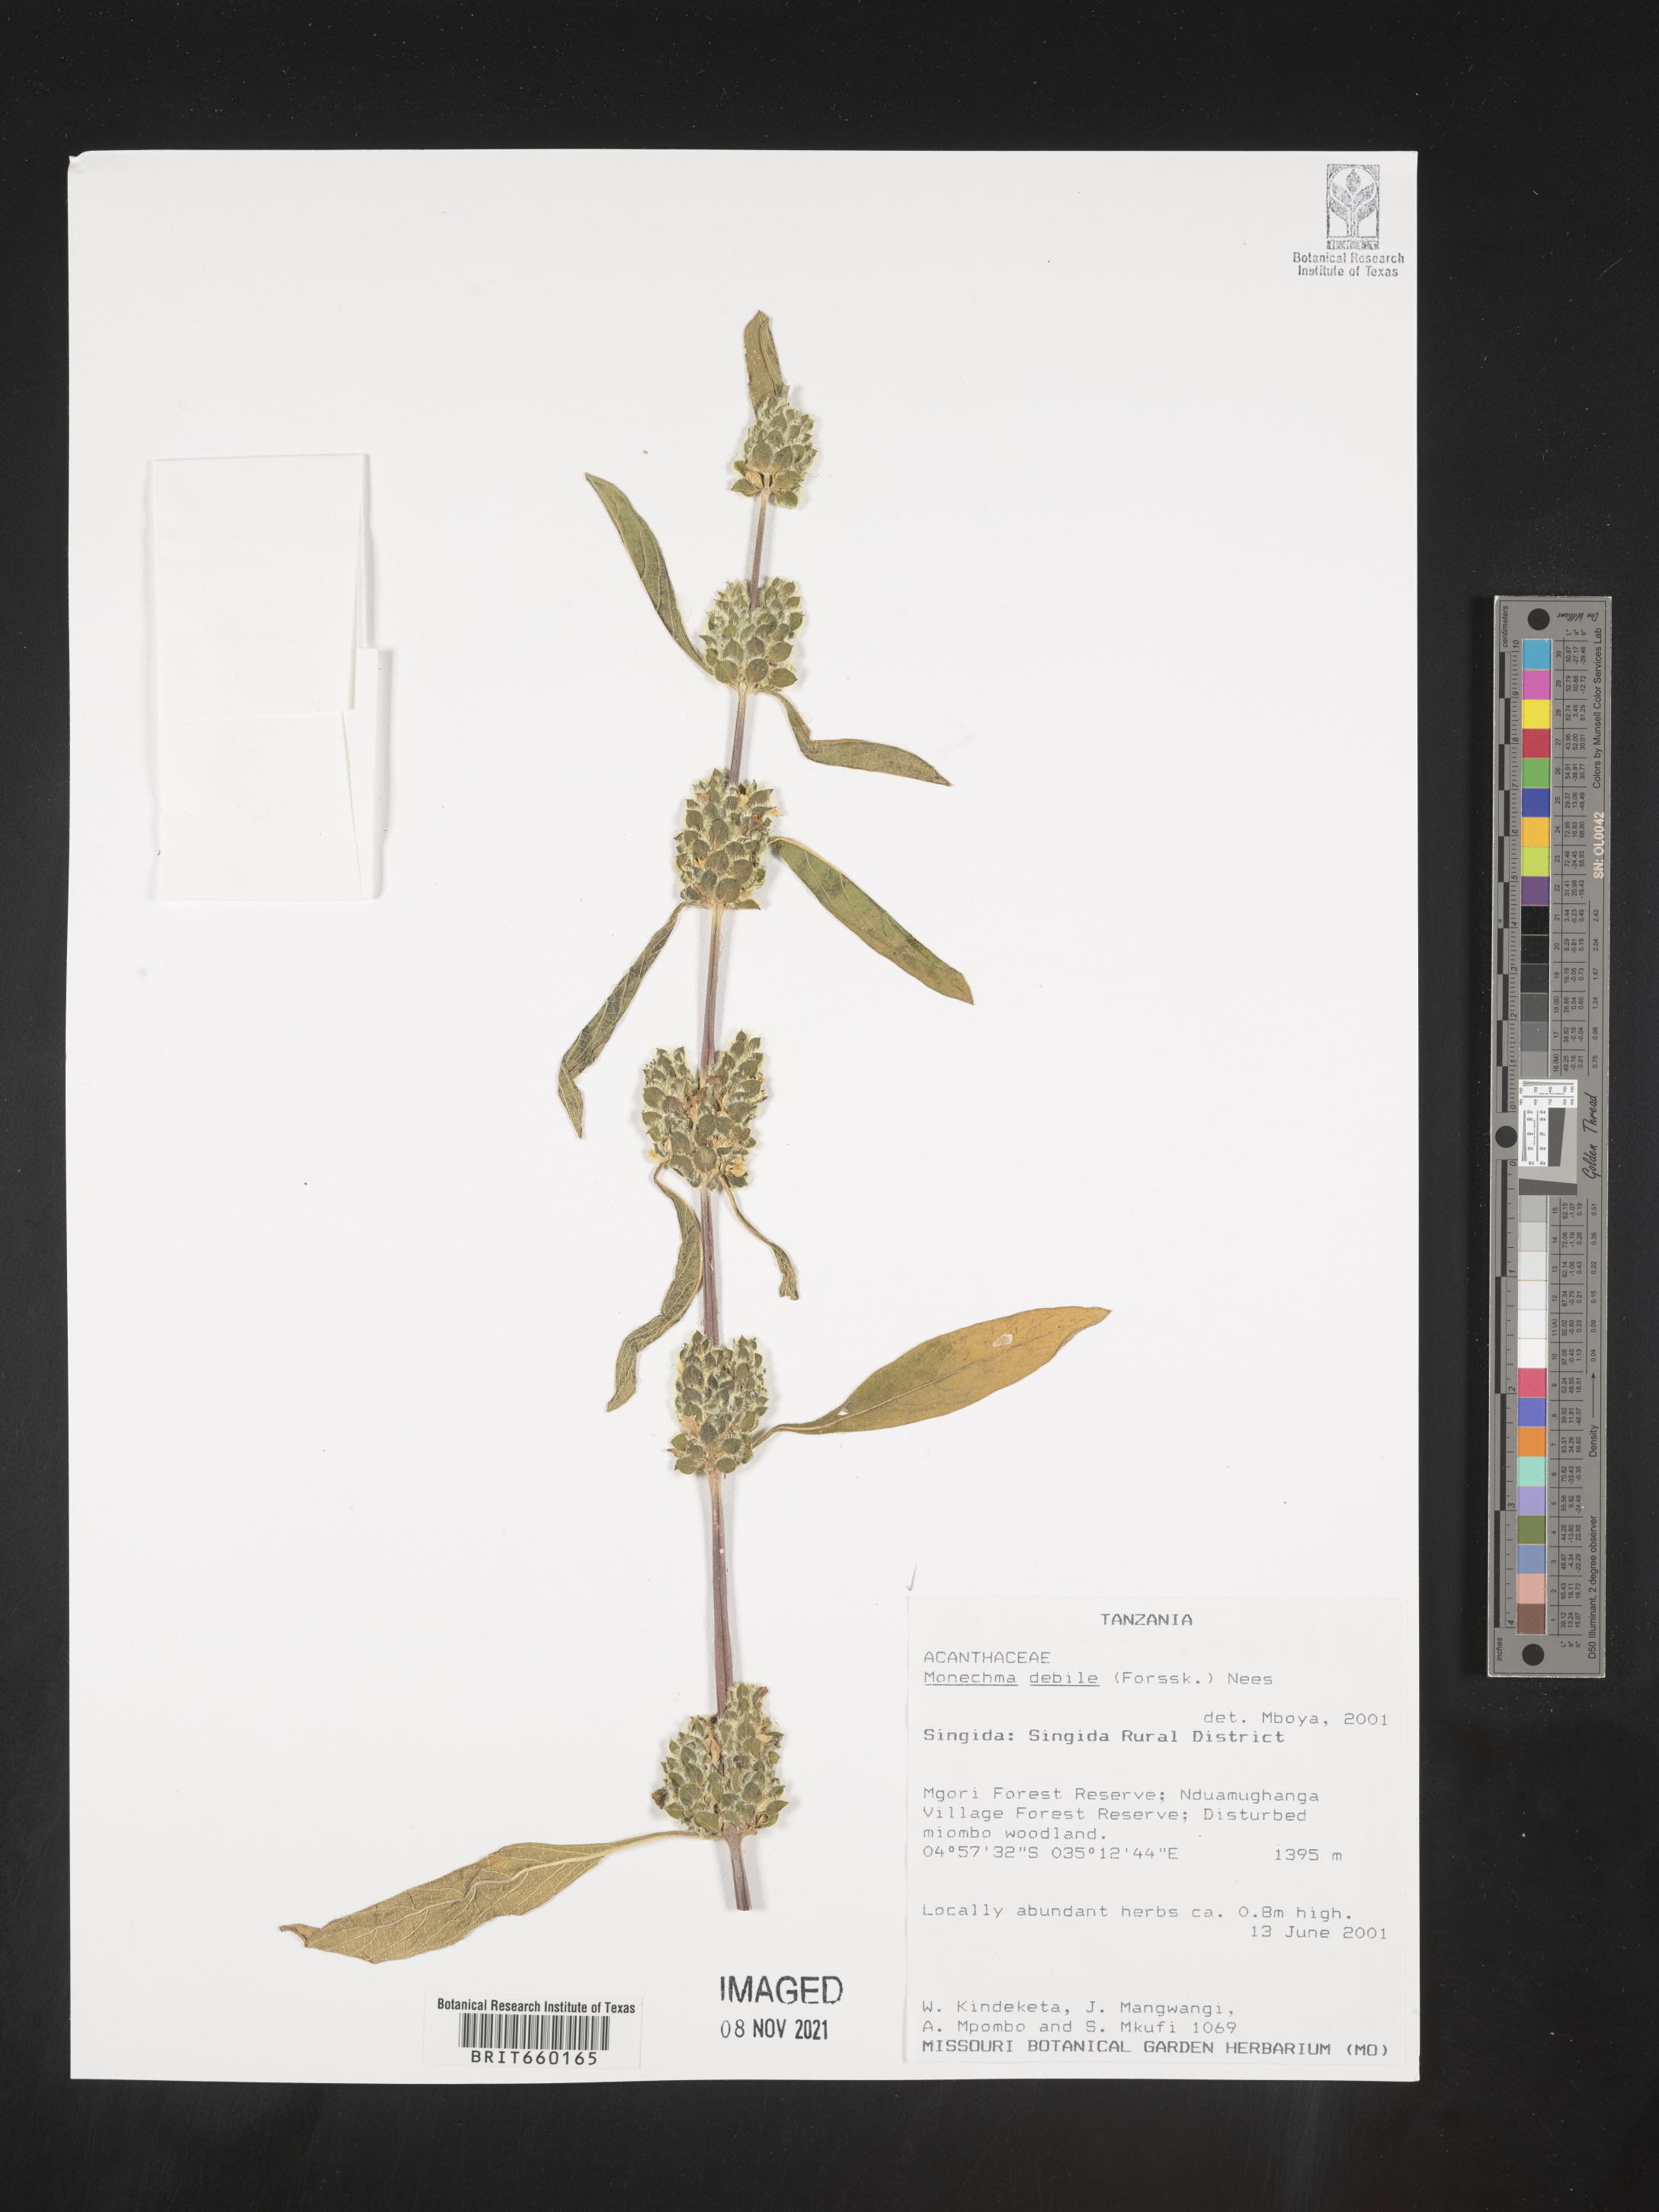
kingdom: Plantae
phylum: Tracheophyta
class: Magnoliopsida
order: Lamiales
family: Acanthaceae
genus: Monechma
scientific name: Monechma
